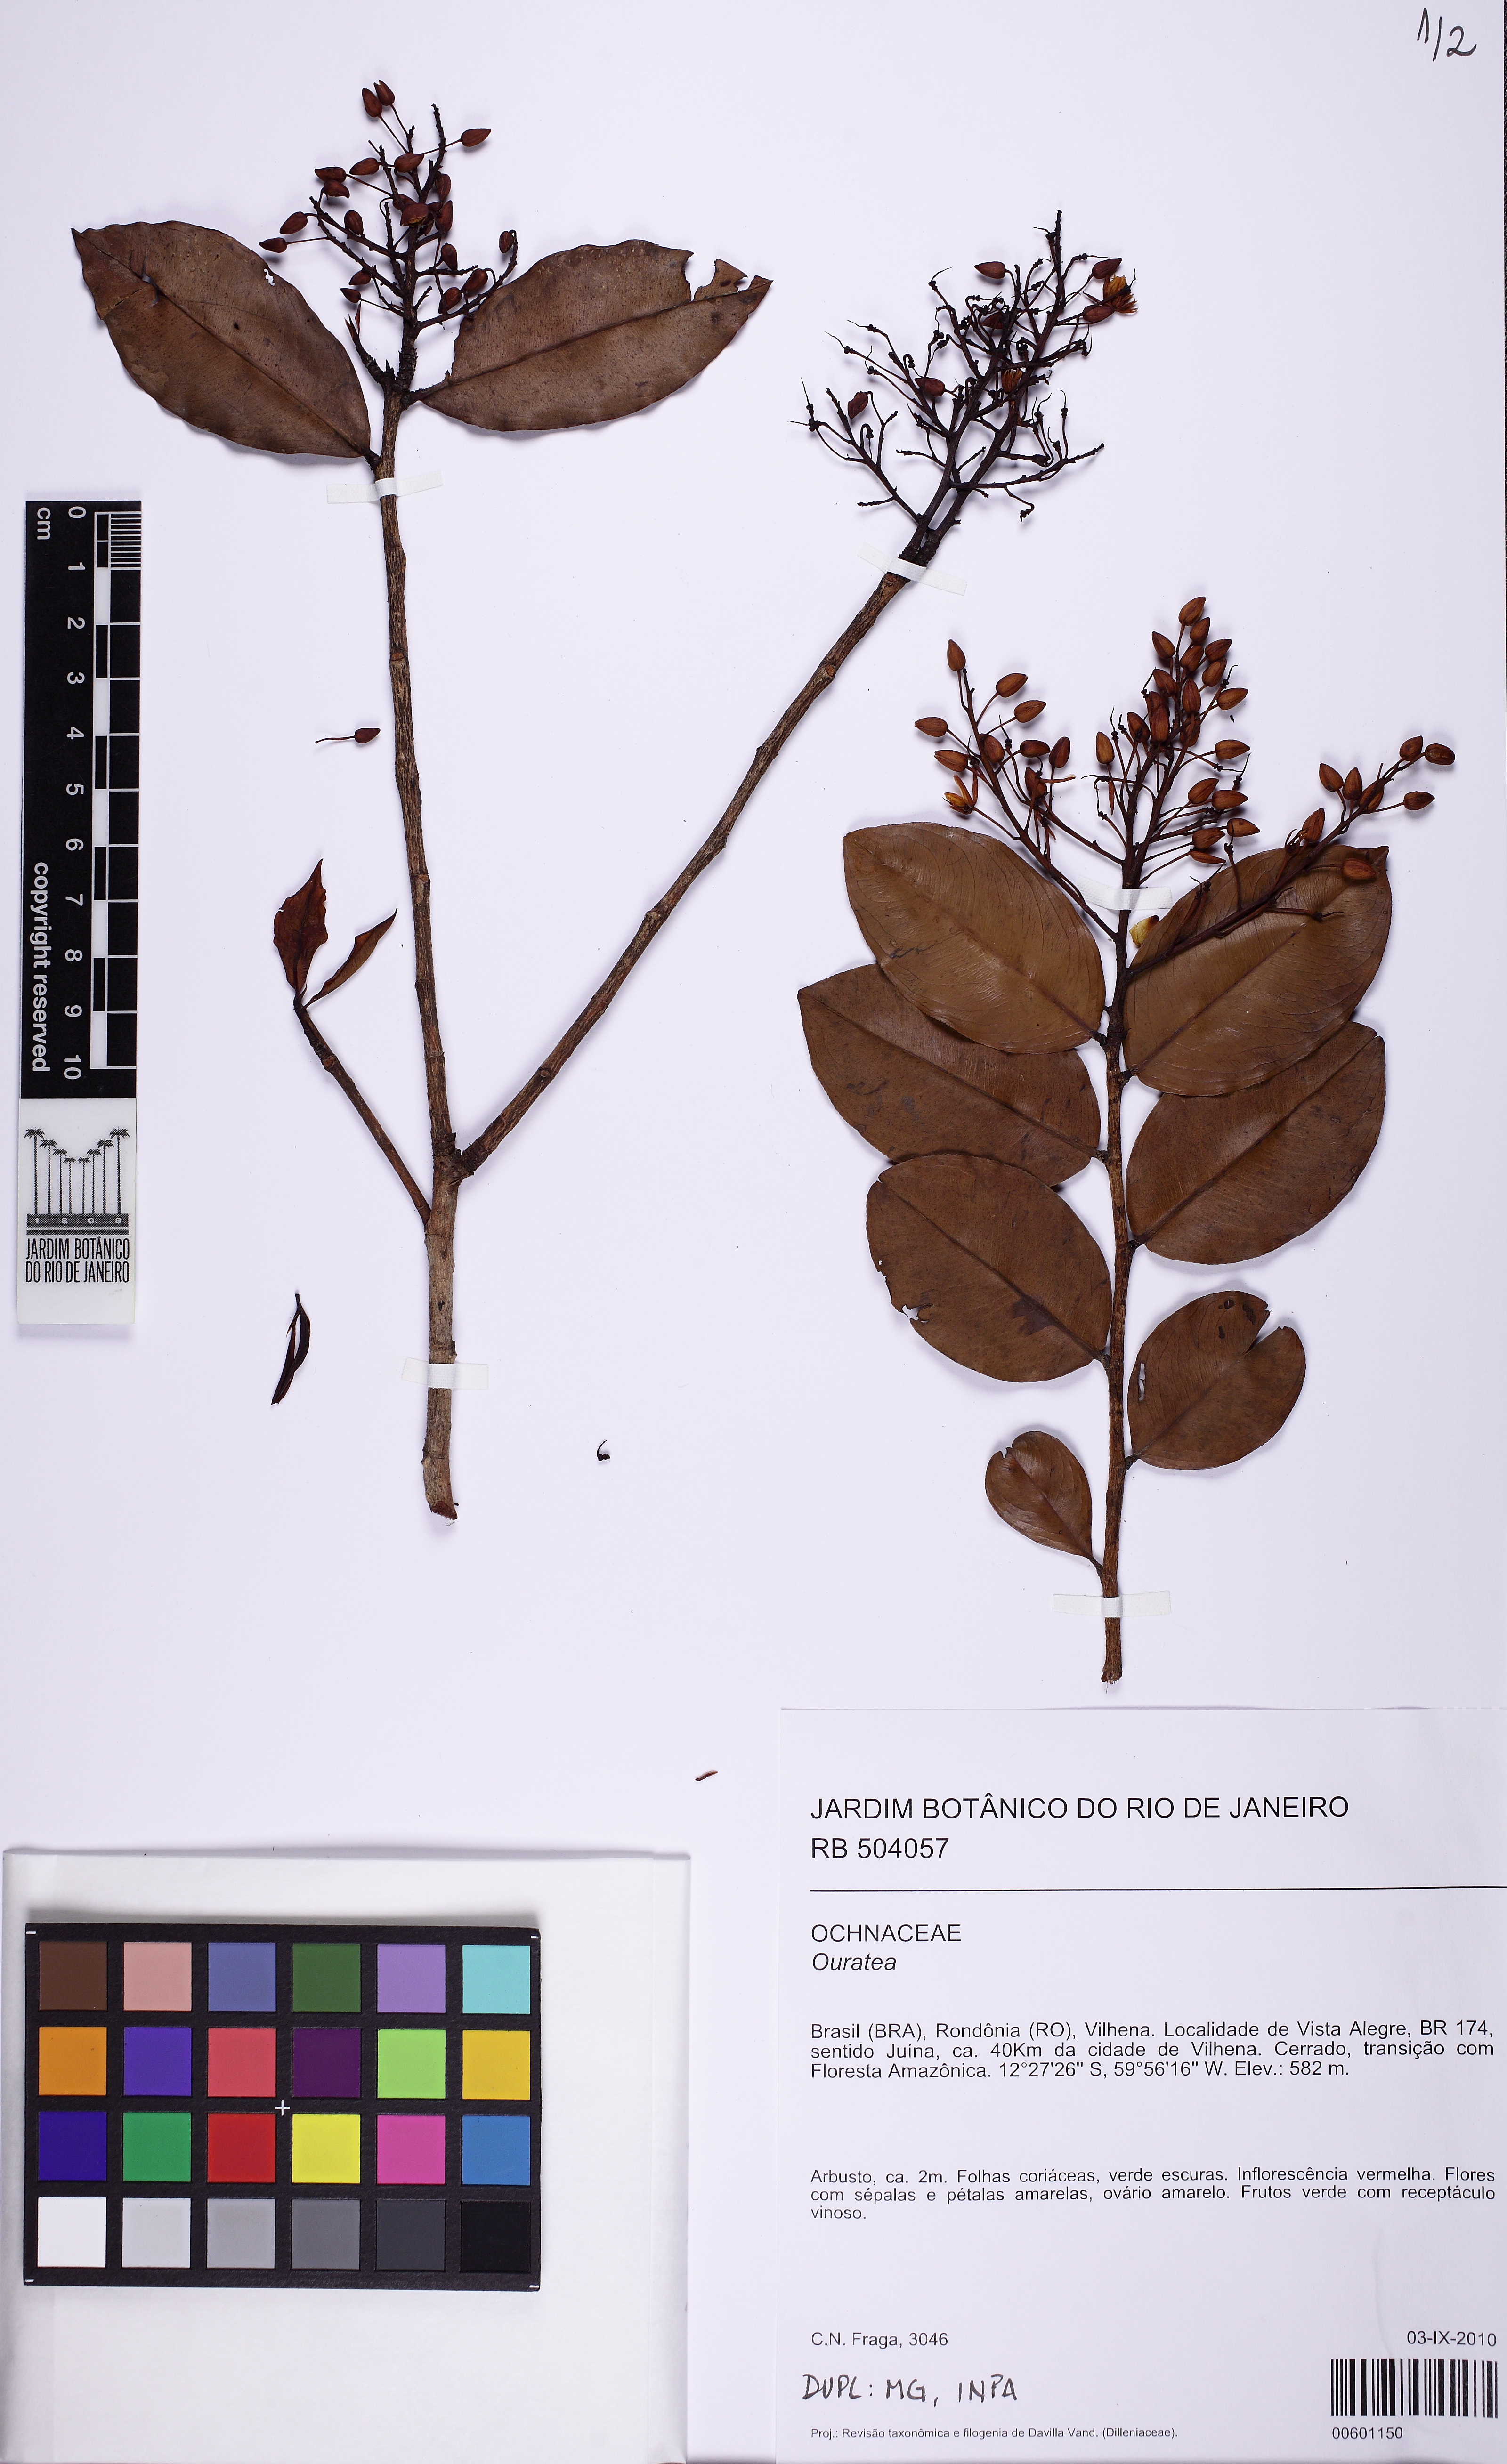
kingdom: Plantae
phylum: Tracheophyta
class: Magnoliopsida
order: Malpighiales
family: Ochnaceae
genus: Ouratea
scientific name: Ouratea
